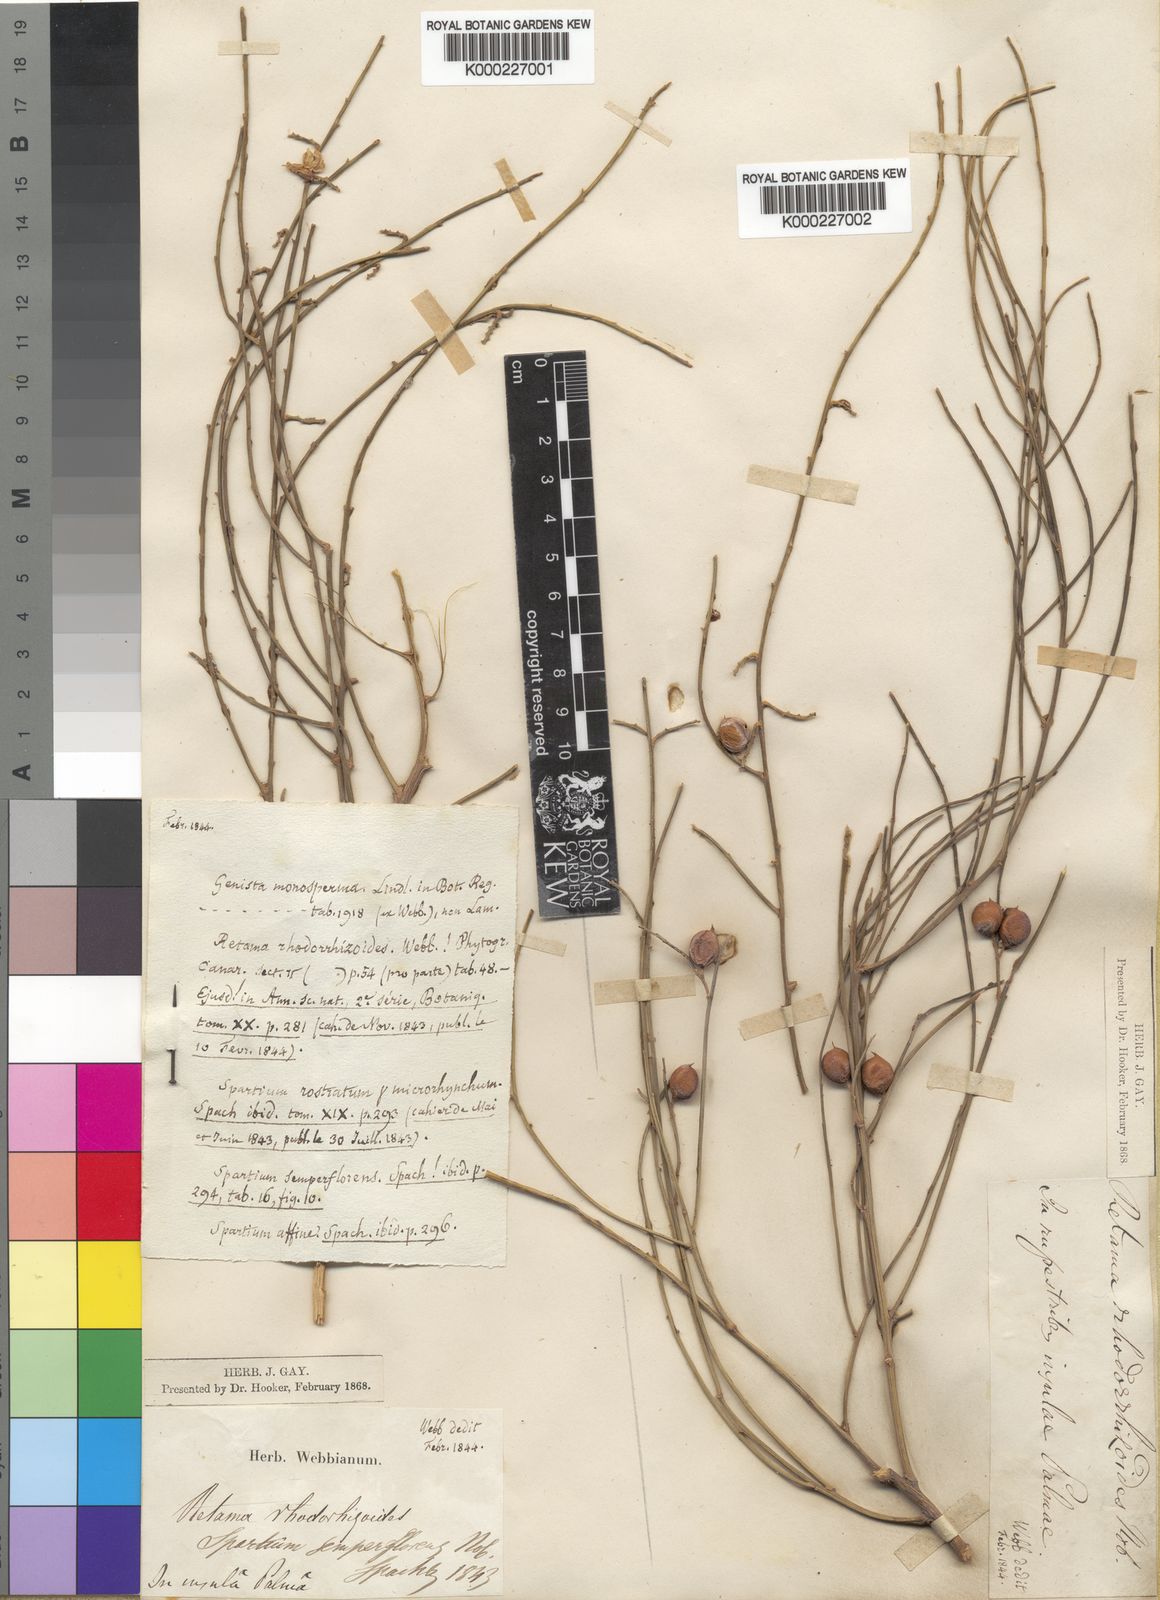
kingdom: Plantae
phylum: Tracheophyta
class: Magnoliopsida
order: Fabales
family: Fabaceae
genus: Retama
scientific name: Retama
